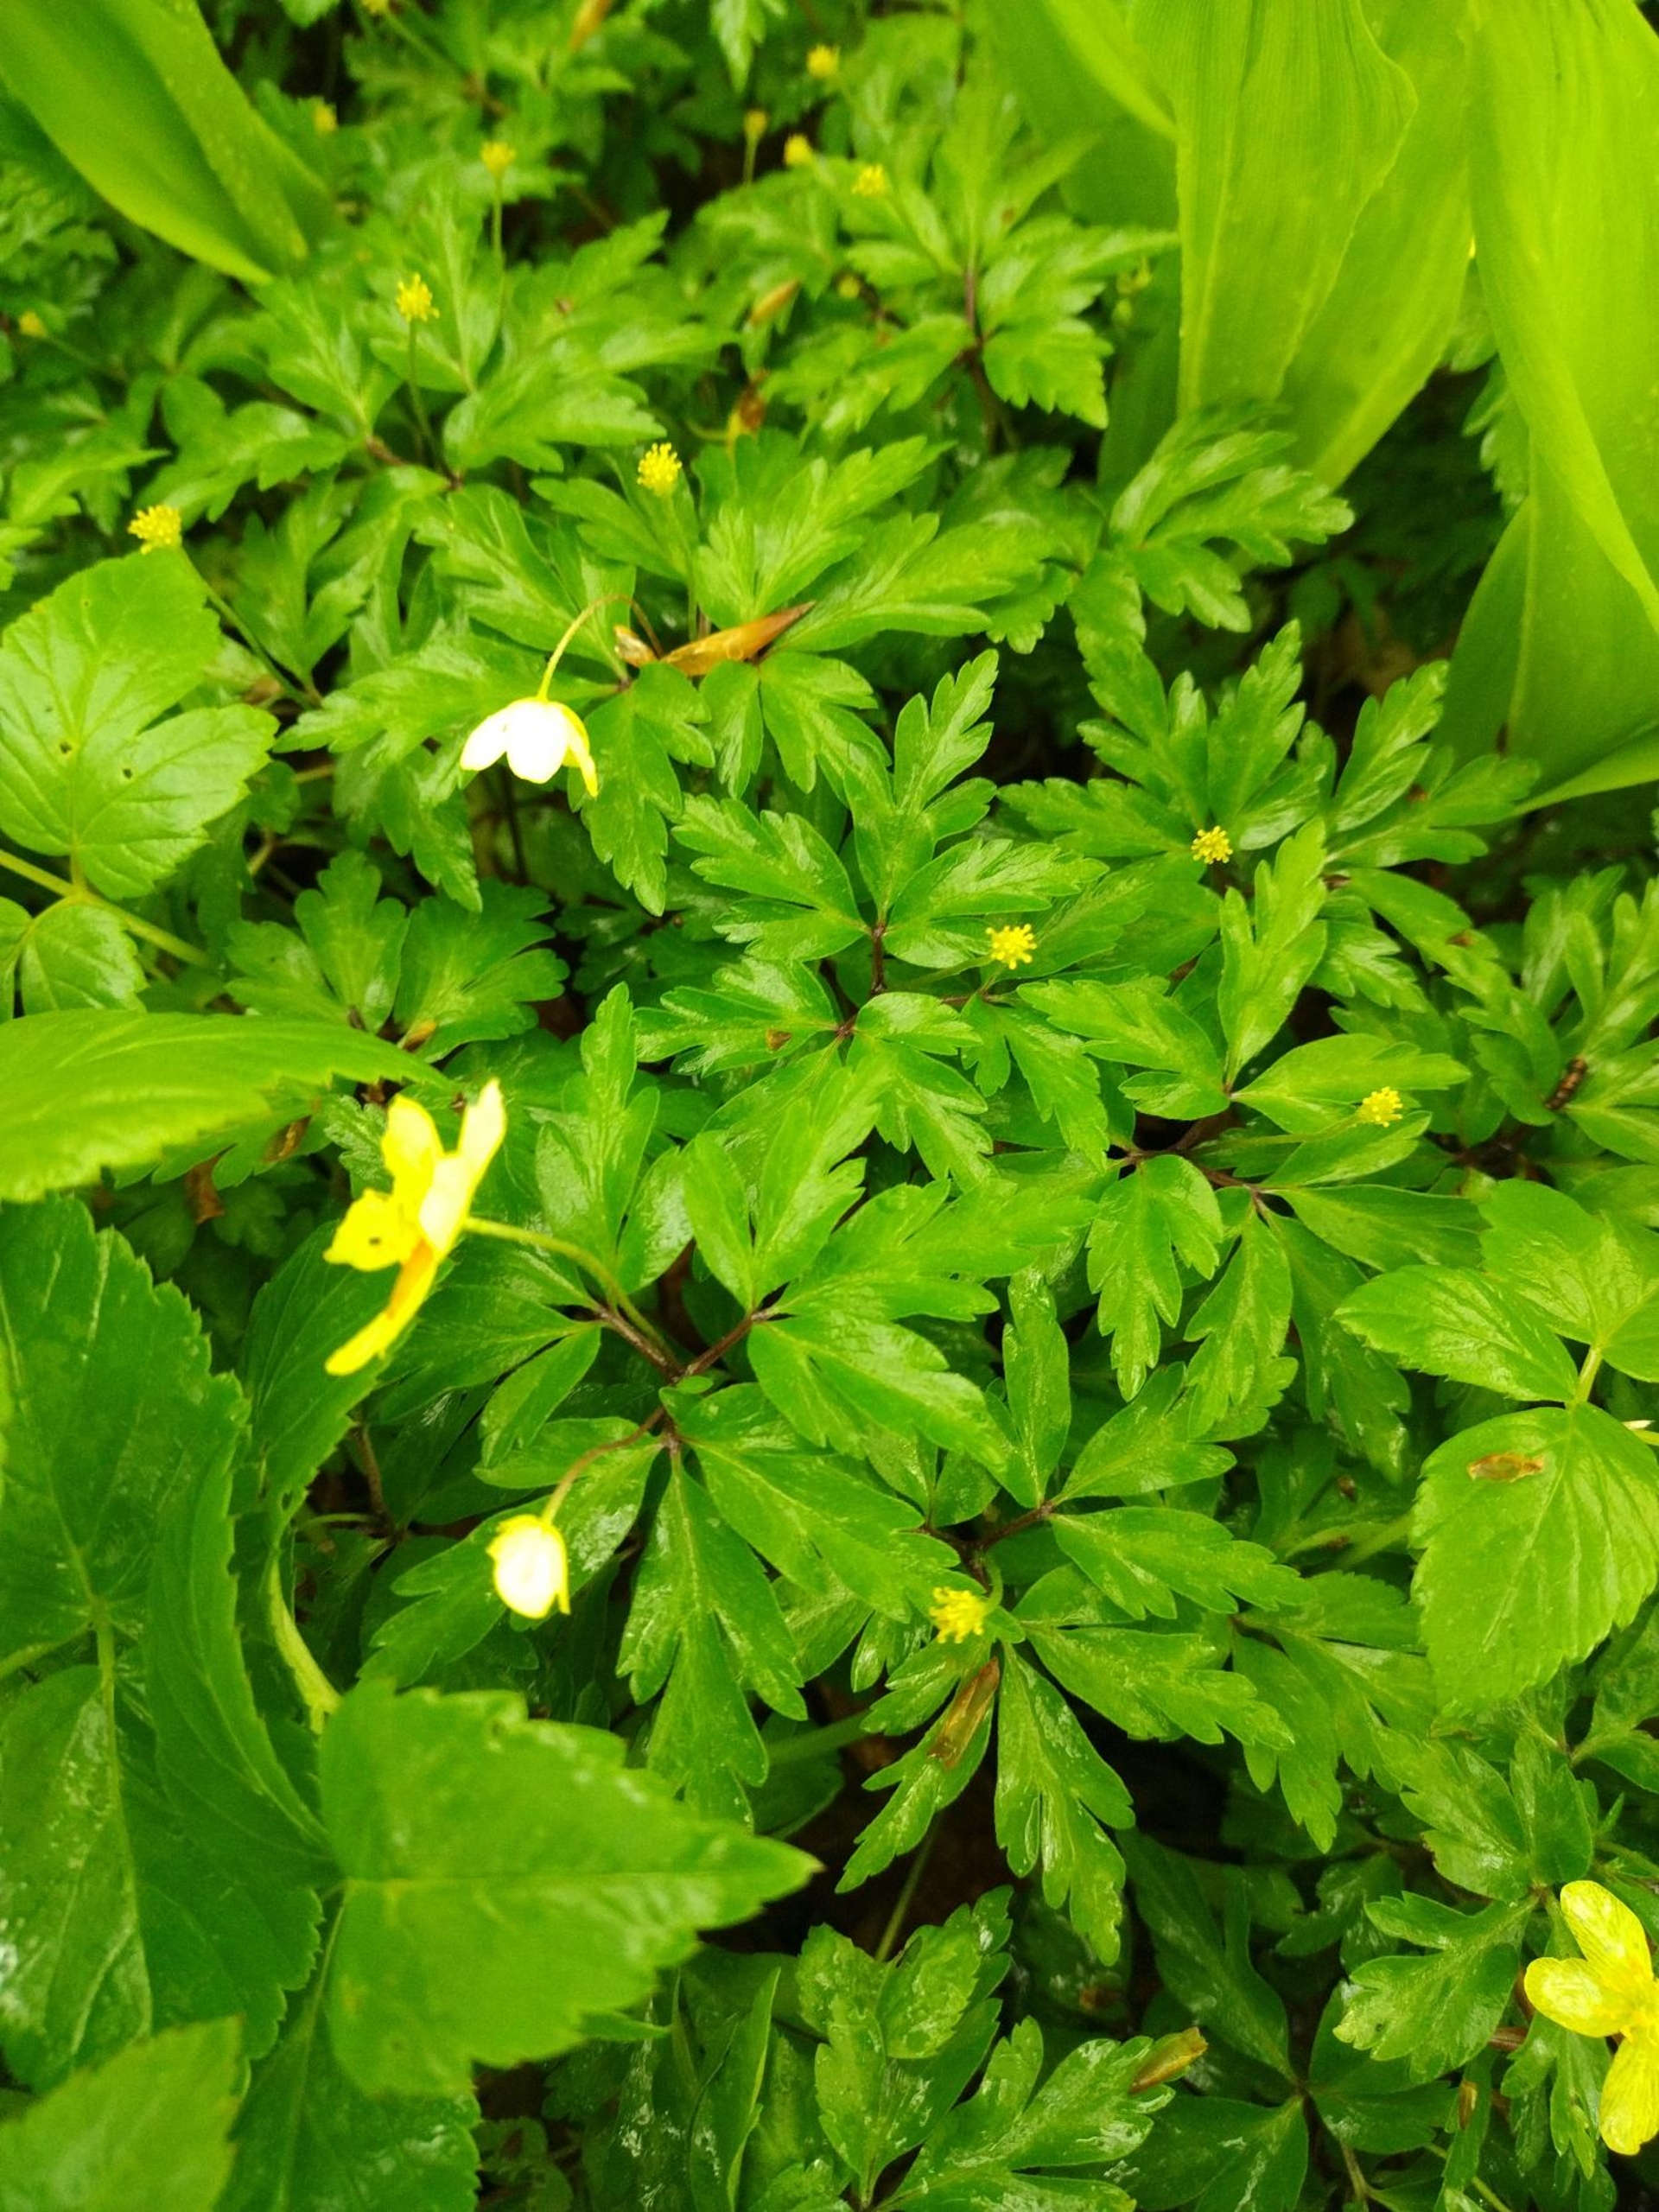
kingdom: Plantae
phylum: Tracheophyta
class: Magnoliopsida
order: Ranunculales
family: Ranunculaceae
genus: Anemone
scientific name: Anemone
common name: Anemone (Anemone-slægten)
